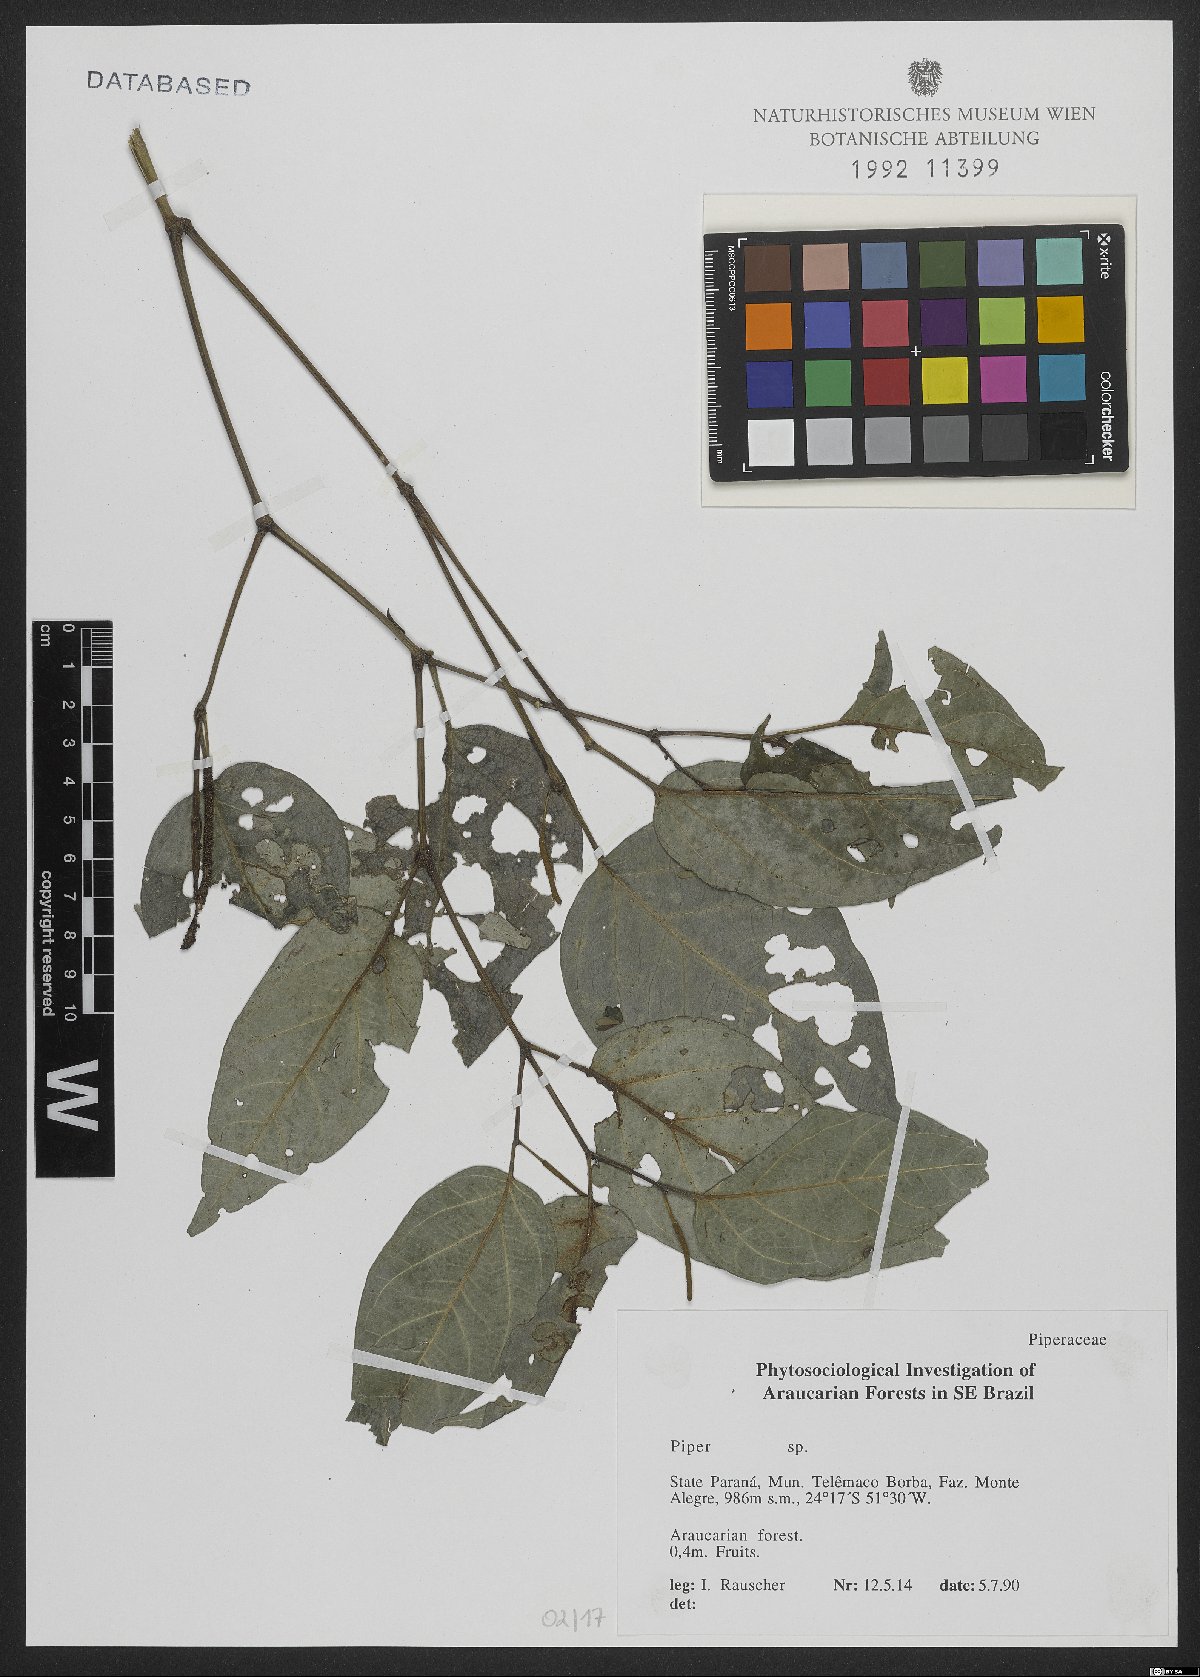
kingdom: Plantae
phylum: Tracheophyta
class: Magnoliopsida
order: Piperales
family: Piperaceae
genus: Piper
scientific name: Piper
